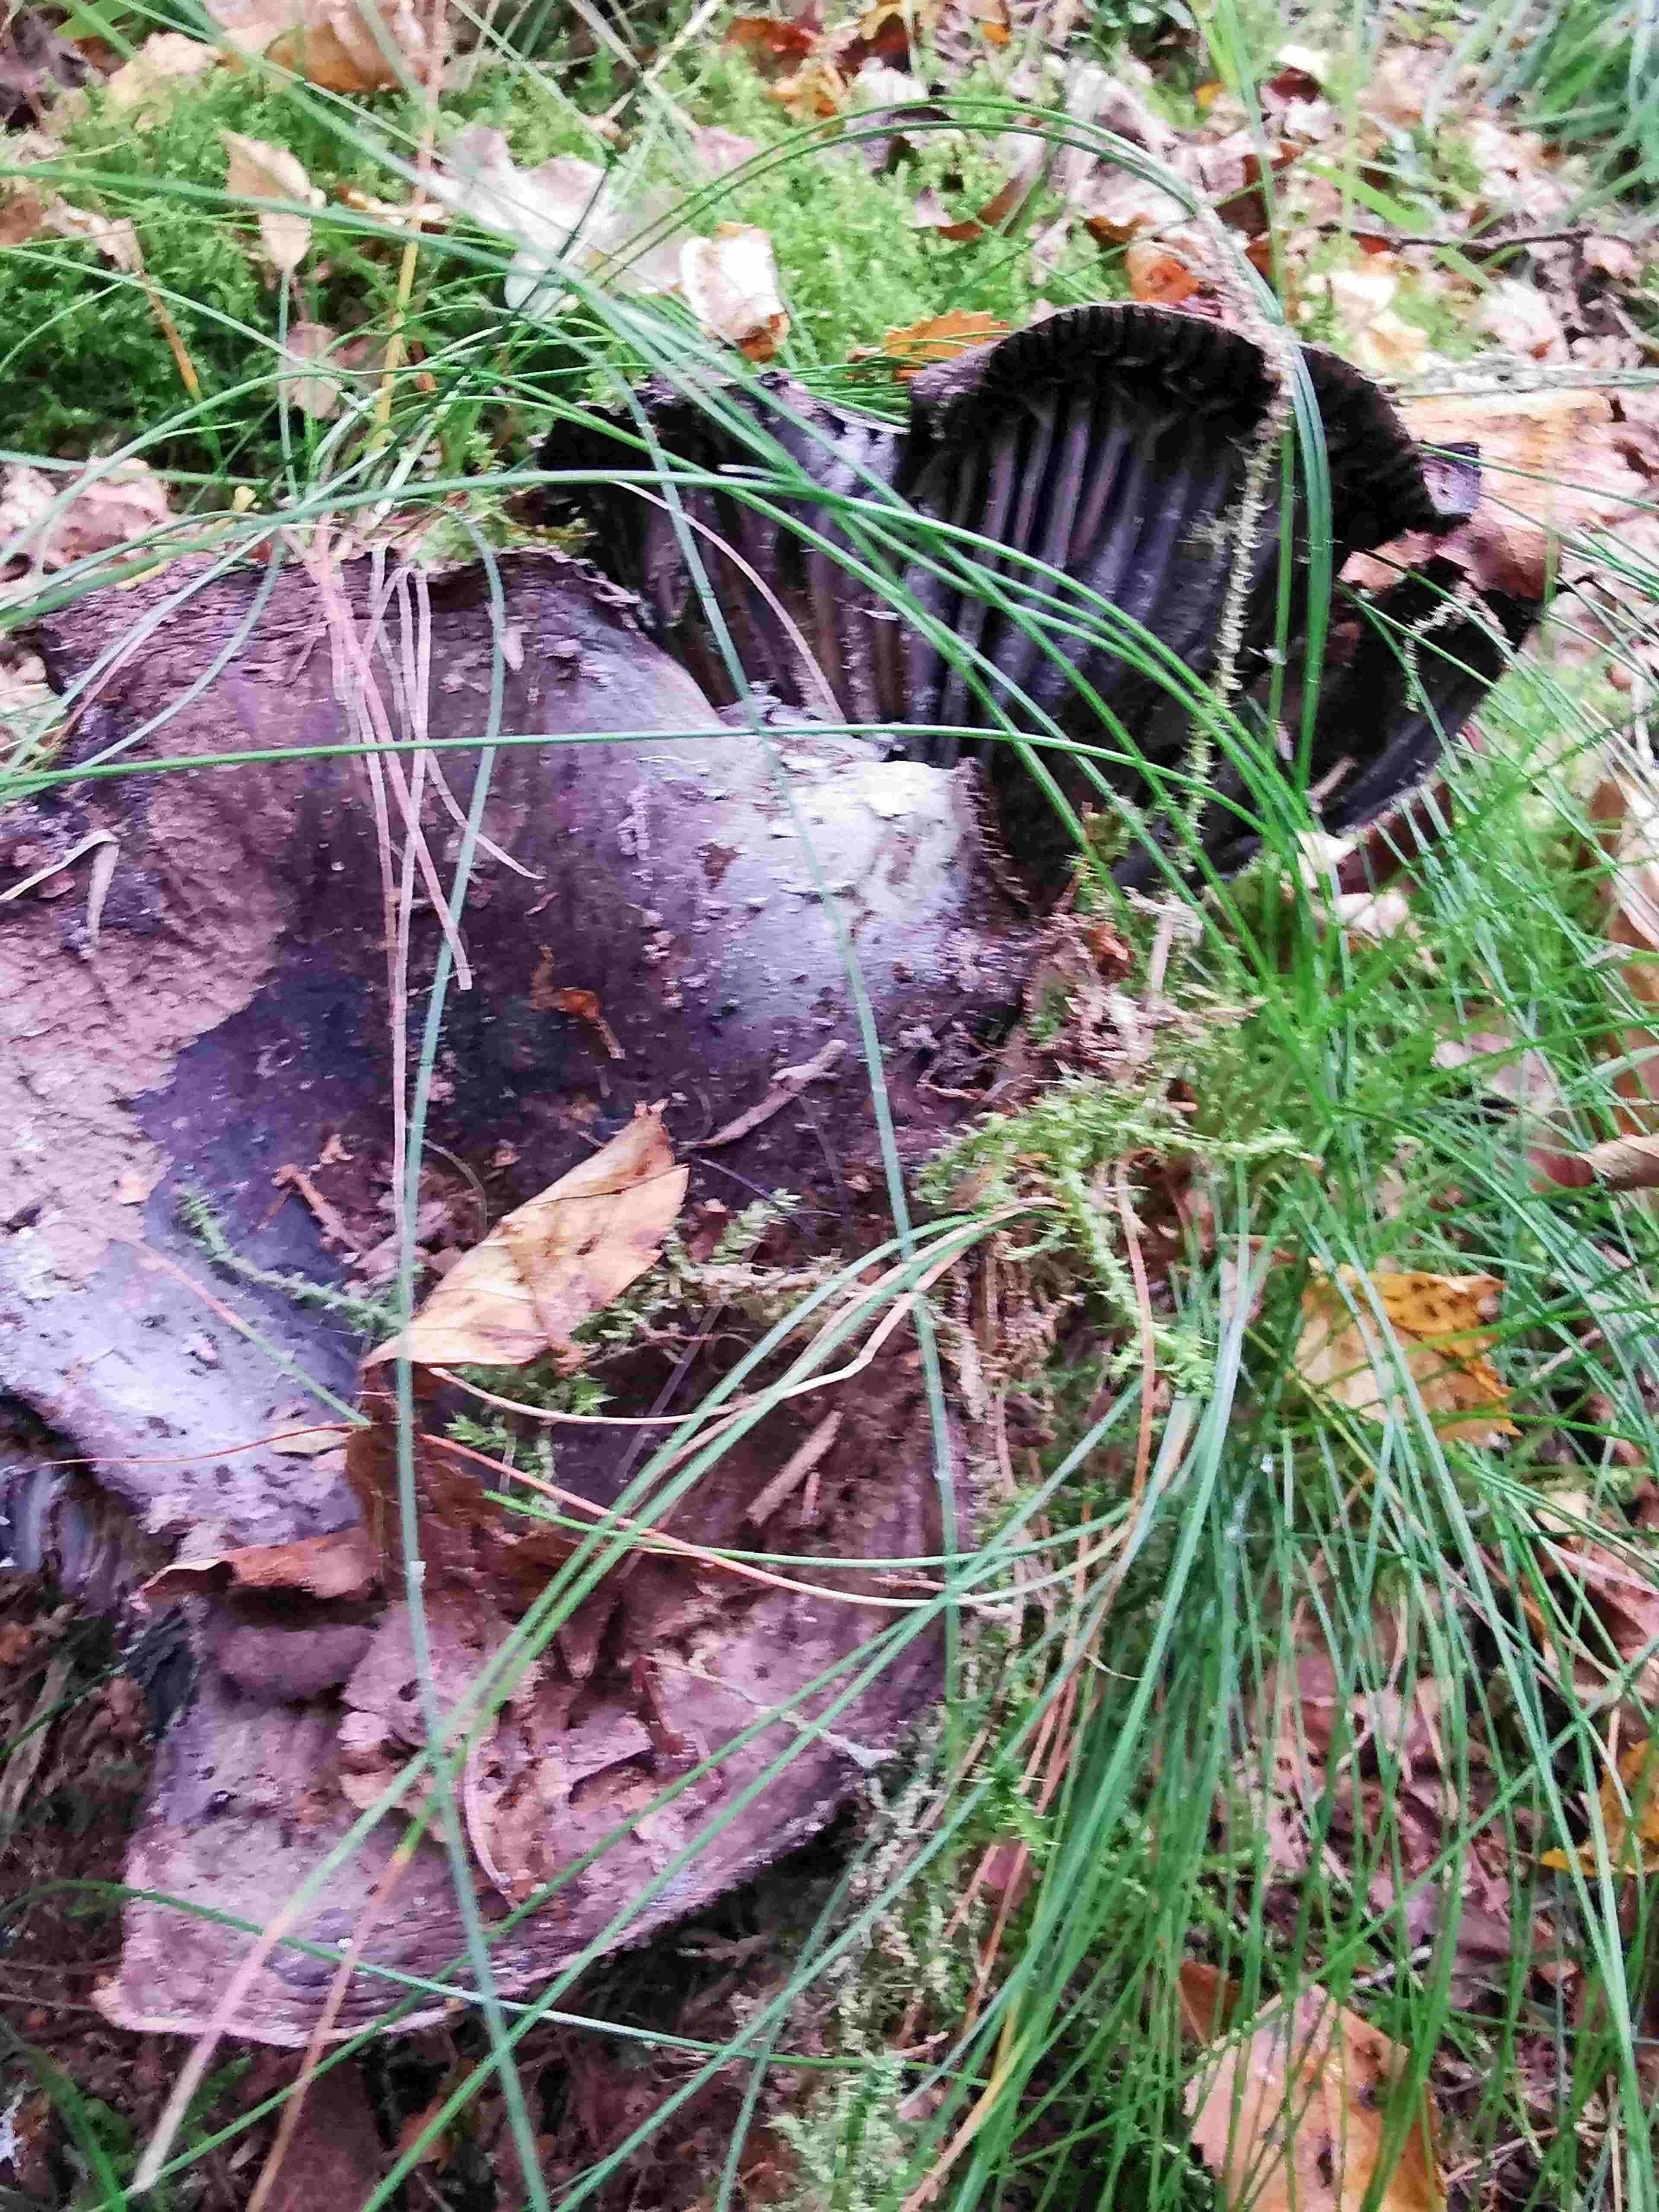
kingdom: Fungi
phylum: Basidiomycota
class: Agaricomycetes
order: Russulales
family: Russulaceae
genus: Russula
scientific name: Russula adusta
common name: sværtende skørhat
